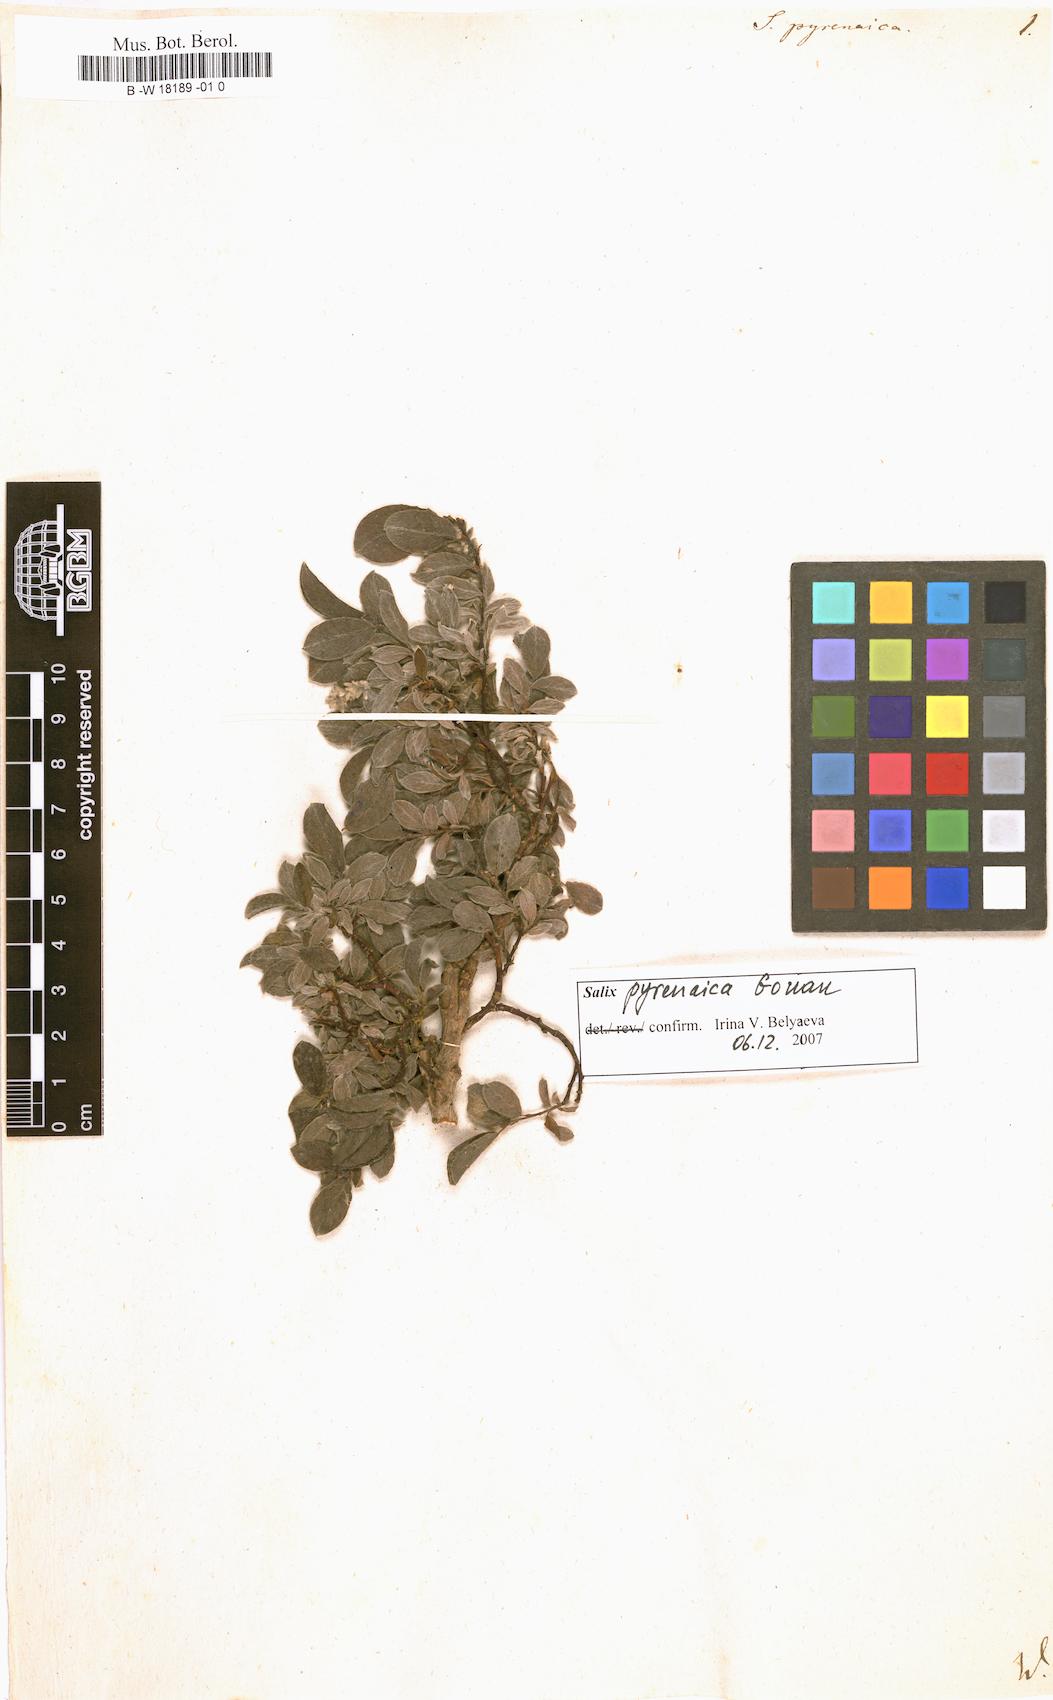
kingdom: Plantae
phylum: Tracheophyta
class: Magnoliopsida
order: Malpighiales
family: Salicaceae
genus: Salix
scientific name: Salix pyrenaica
